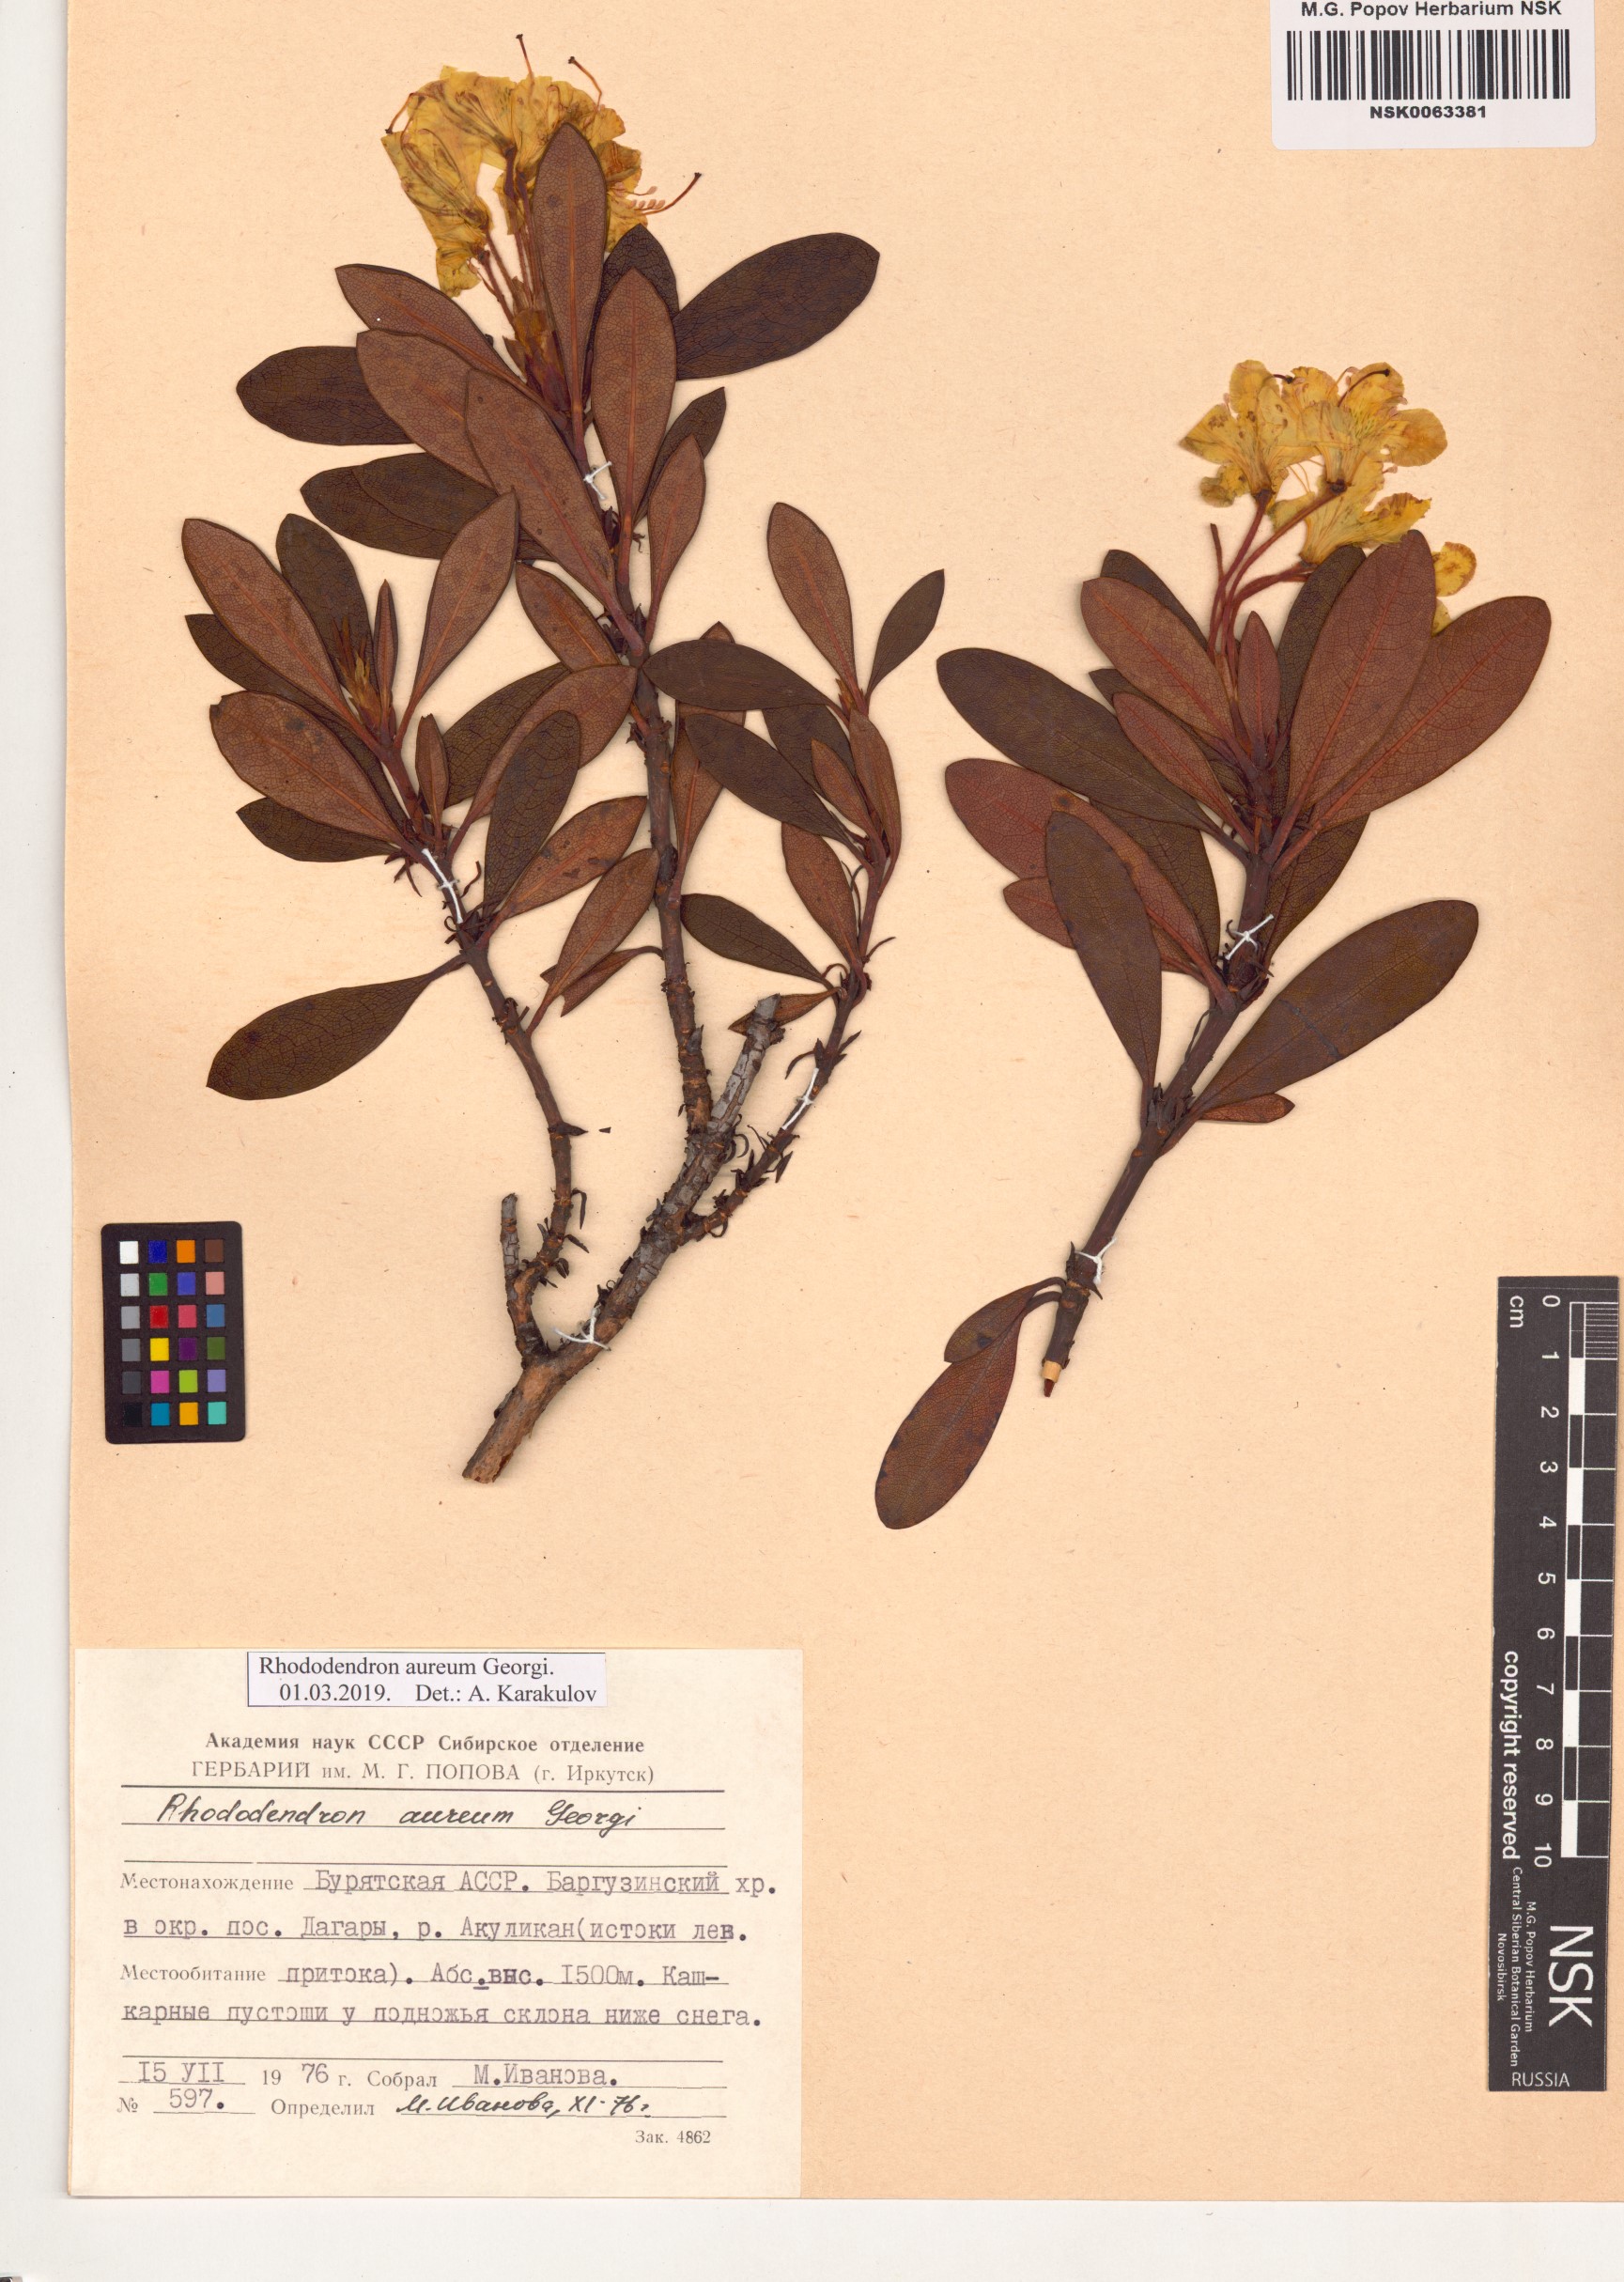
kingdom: Plantae
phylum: Tracheophyta
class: Magnoliopsida
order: Ericales
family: Ericaceae
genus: Rhododendron
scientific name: Rhododendron aureum
